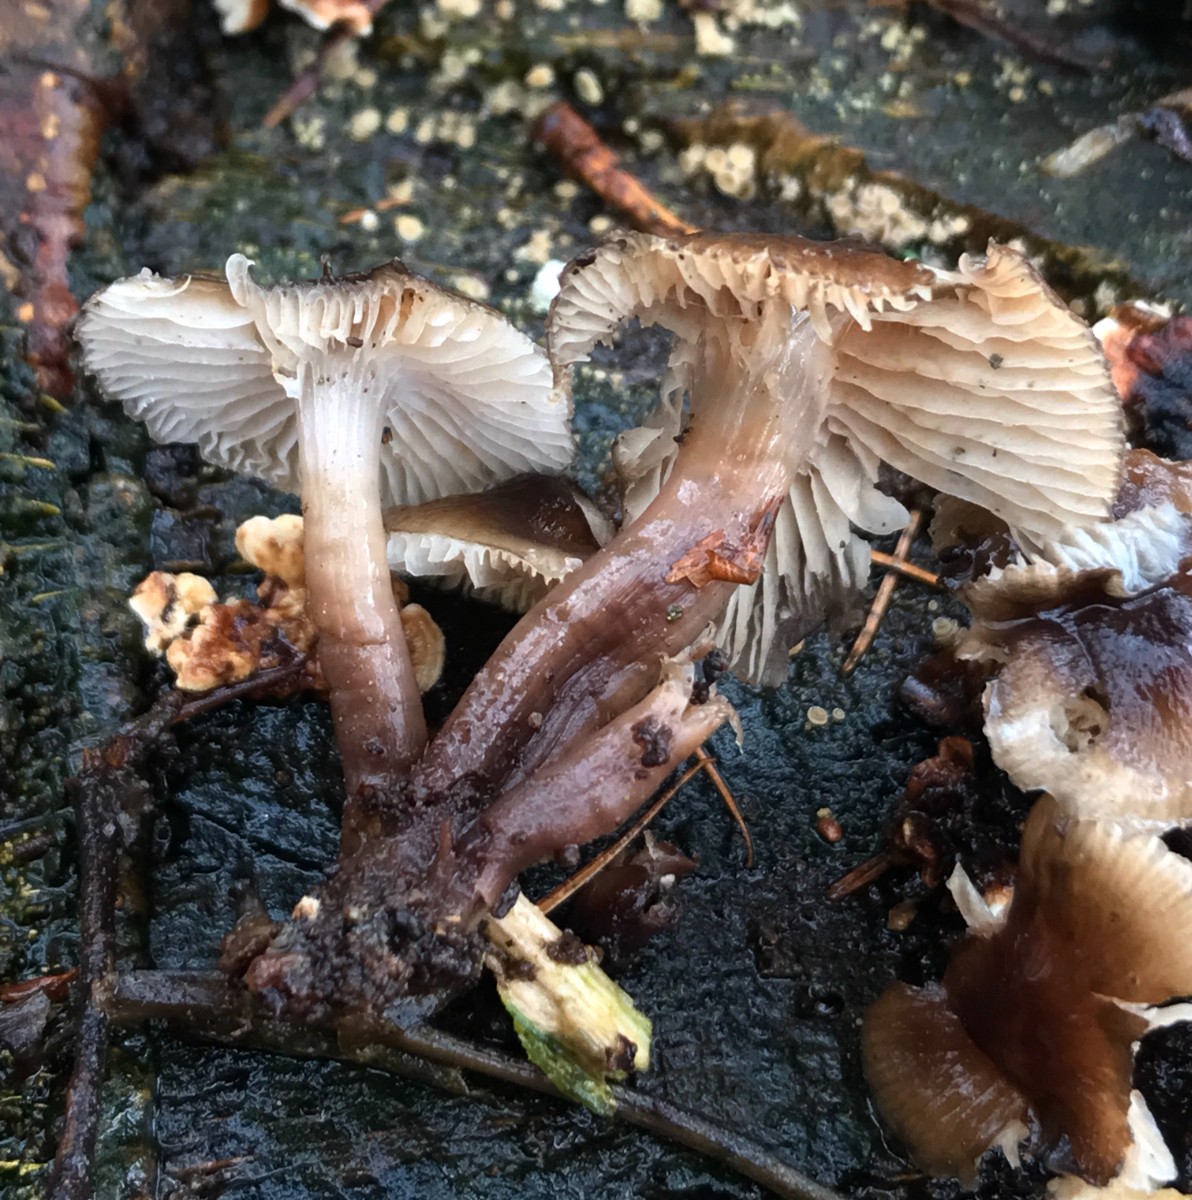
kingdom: Fungi
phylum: Basidiomycota
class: Agaricomycetes
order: Agaricales
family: Mycenaceae
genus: Mycena
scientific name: Mycena tintinnabulum
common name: vinter-huesvamp
